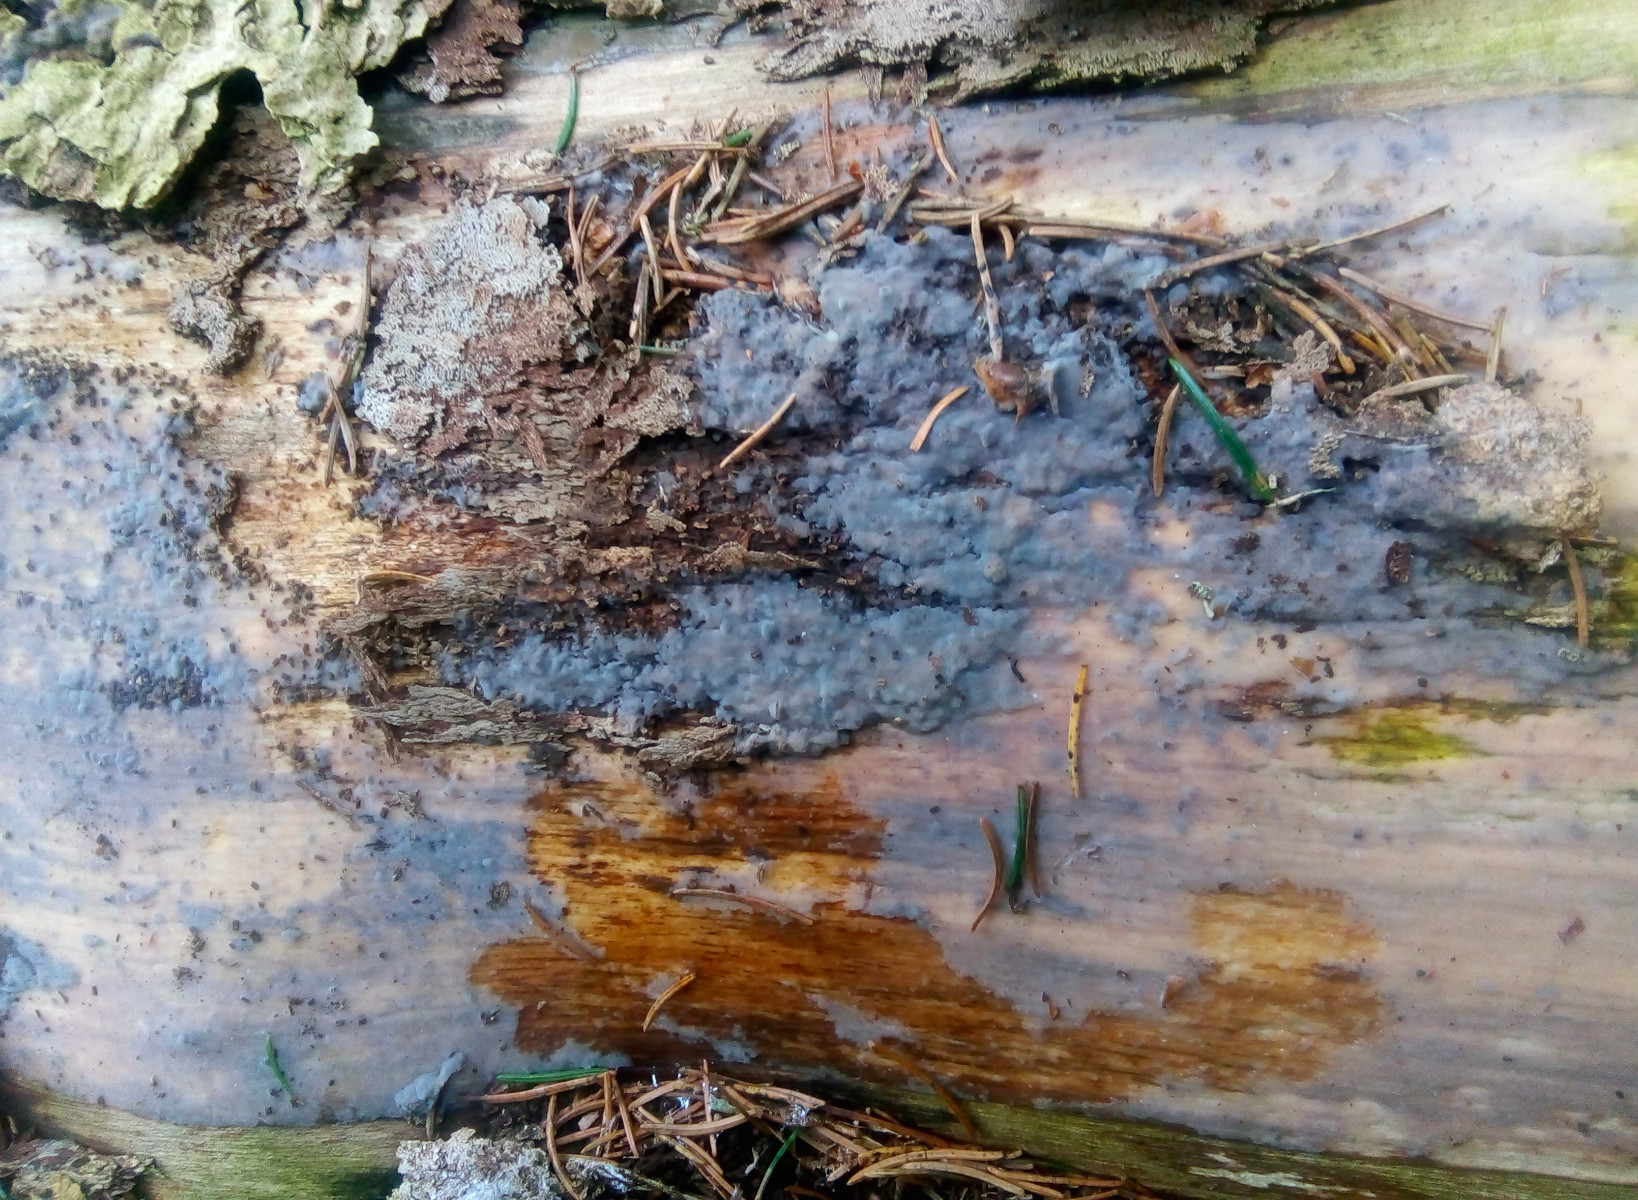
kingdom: Fungi
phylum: Basidiomycota
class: Agaricomycetes
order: Sebacinales
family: Sebacinaceae
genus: Sebacina
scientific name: Sebacina grisea
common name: blågrå bævrehinde
